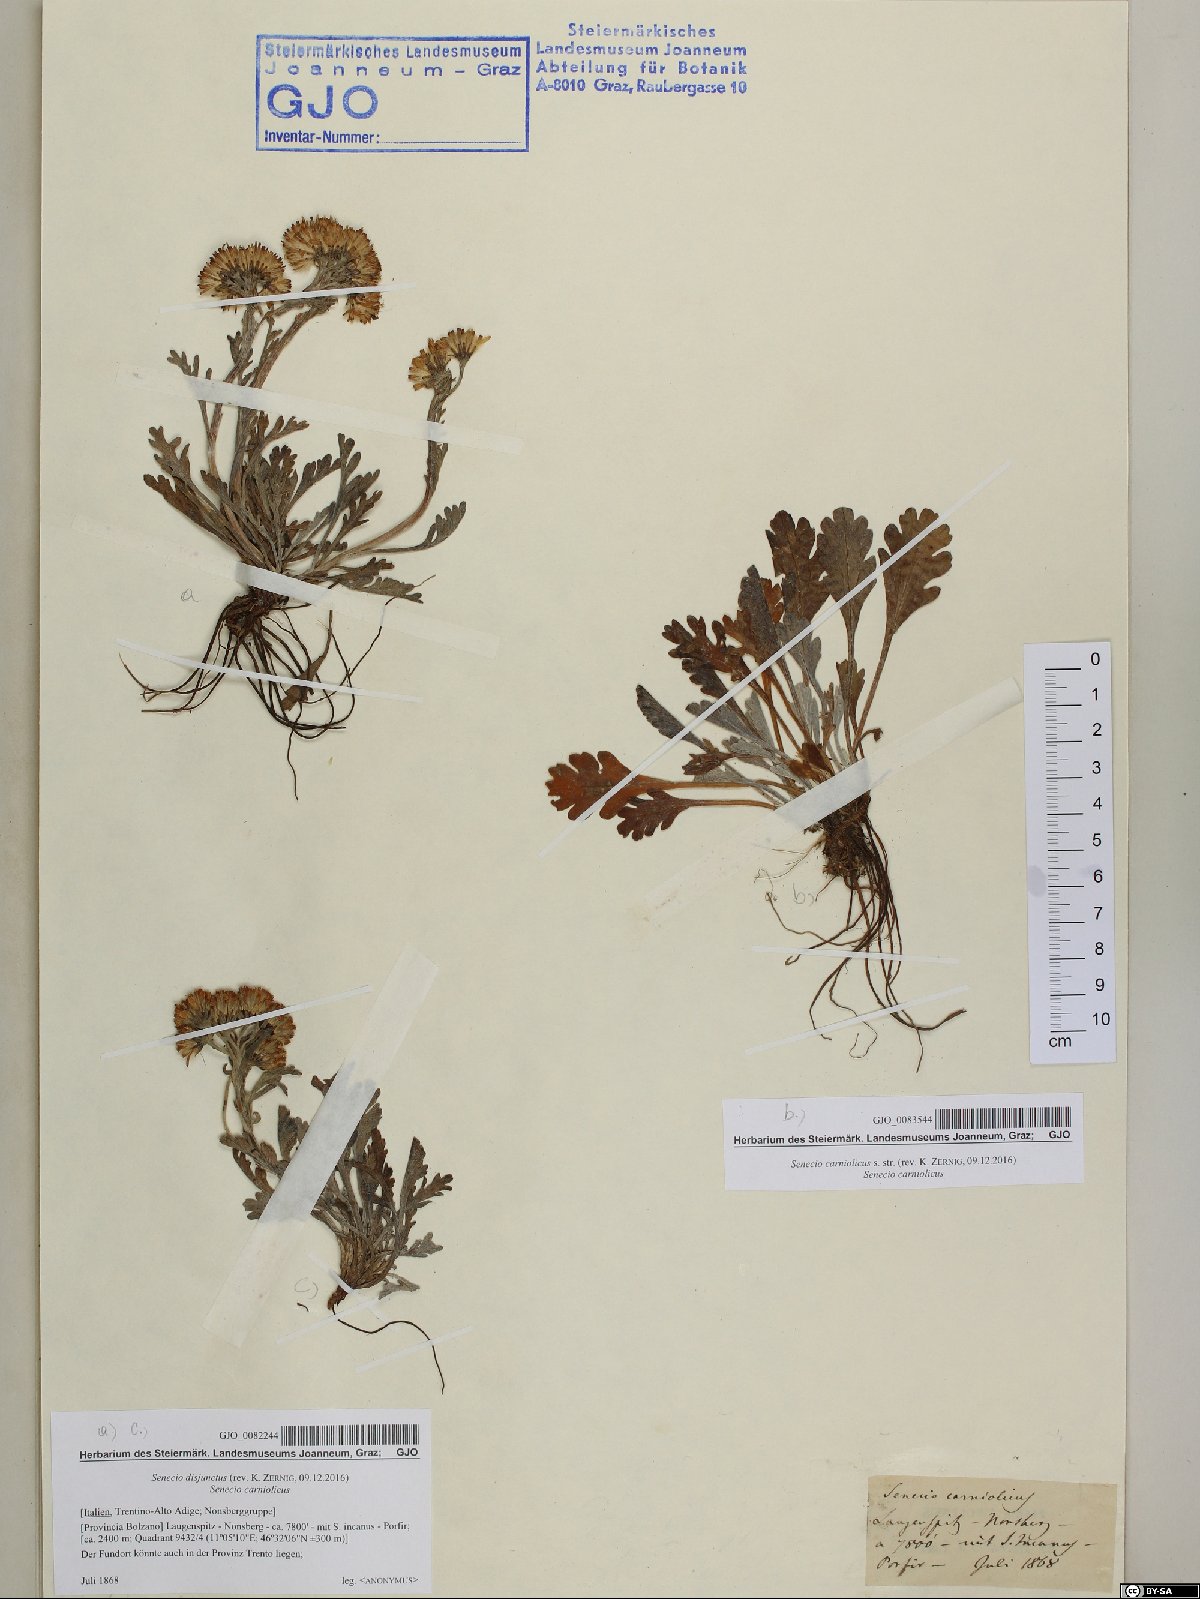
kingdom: Plantae
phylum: Tracheophyta
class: Magnoliopsida
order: Asterales
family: Asteraceae
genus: Jacobaea
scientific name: Jacobaea disjuncta
